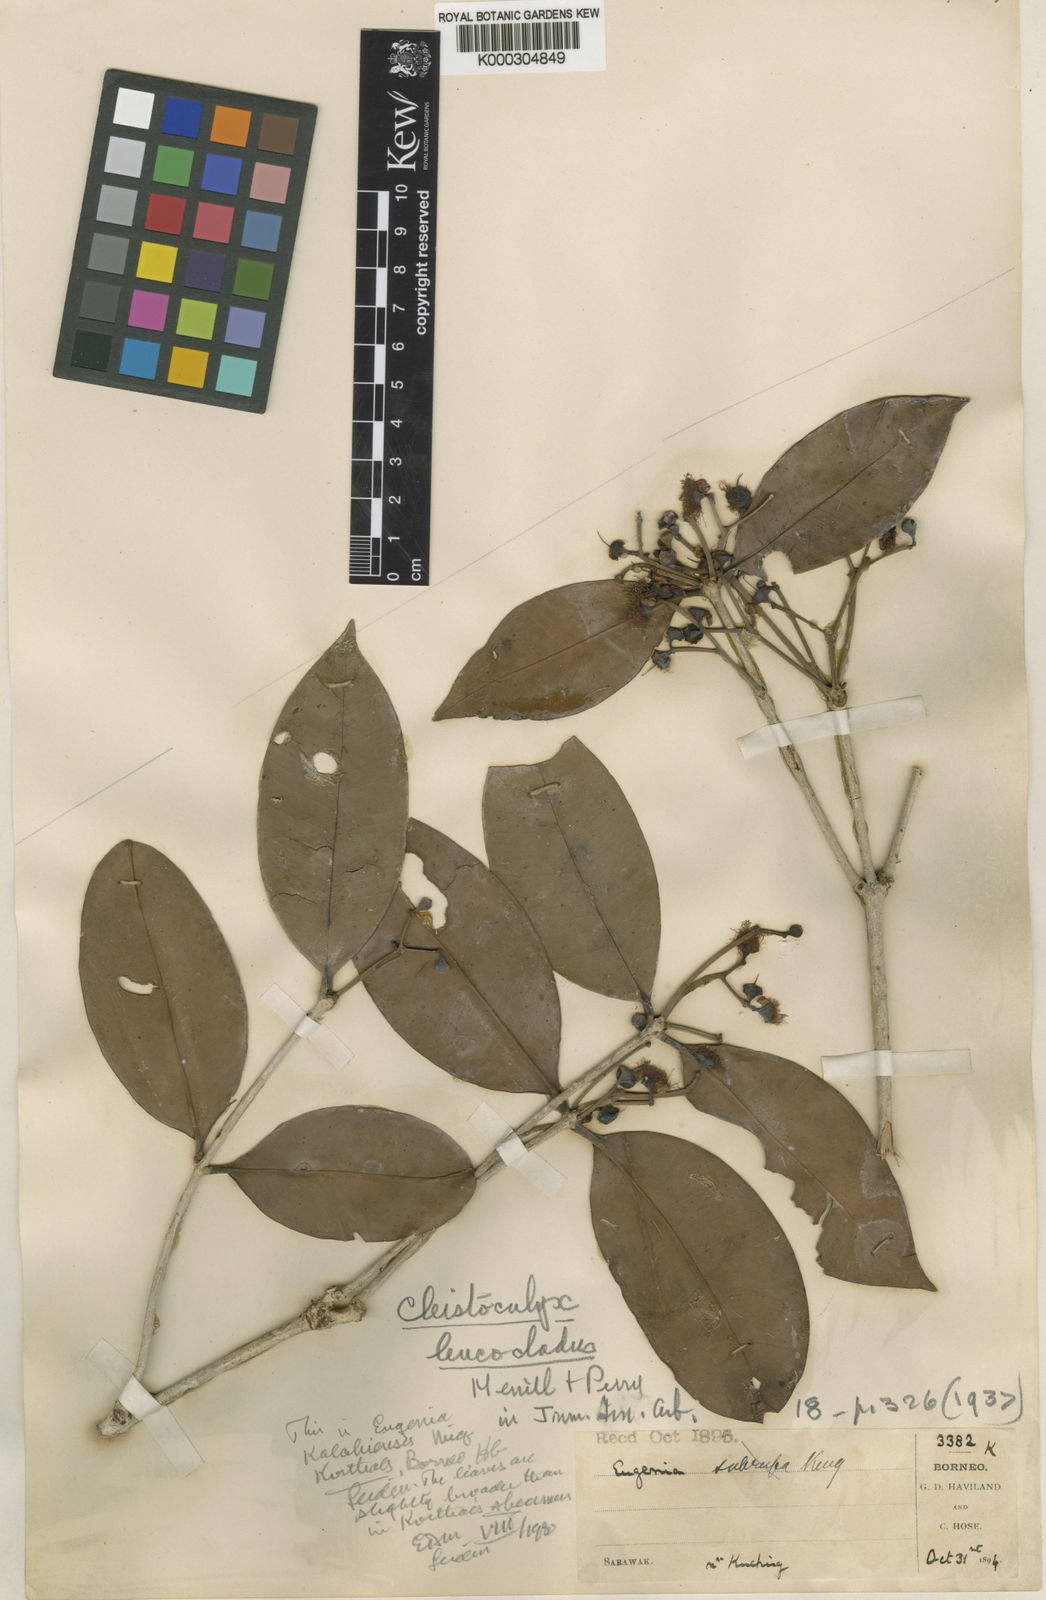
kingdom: Plantae
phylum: Tracheophyta
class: Magnoliopsida
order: Myrtales
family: Myrtaceae
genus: Syzygium
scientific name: Syzygium calyptrocalyx
